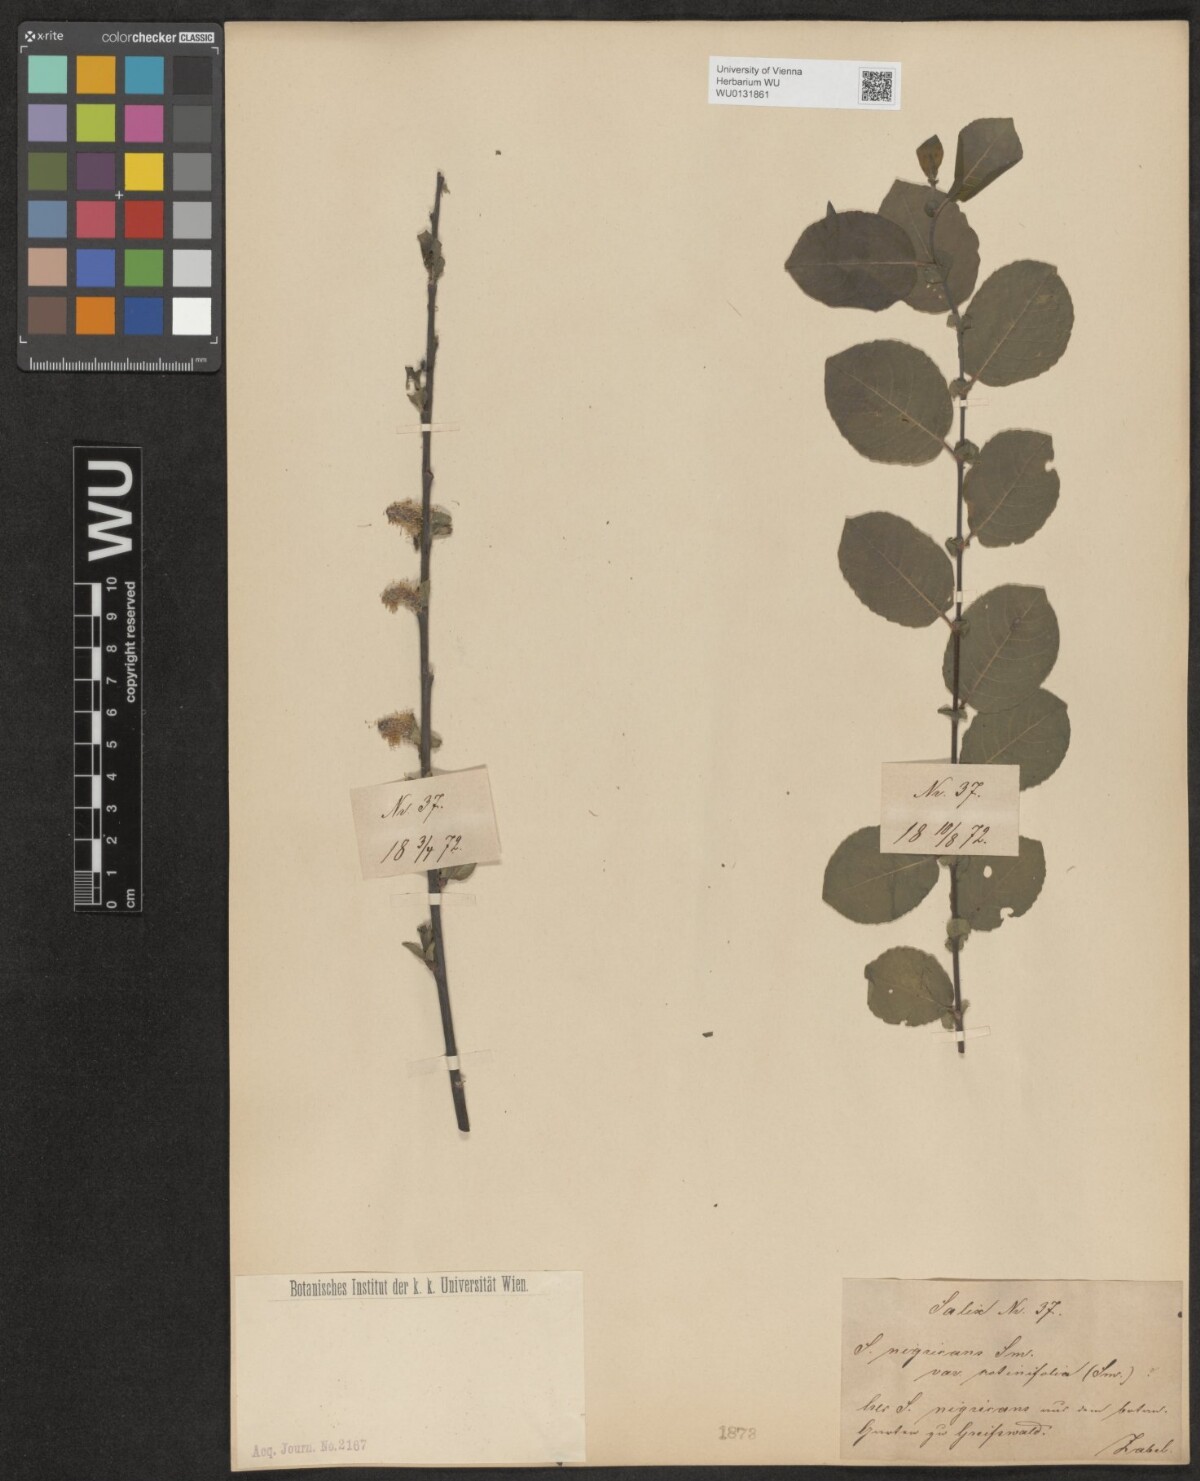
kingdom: Plantae
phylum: Tracheophyta
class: Magnoliopsida
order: Malpighiales
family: Salicaceae
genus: Salix
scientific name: Salix myrsinifolia
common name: Dark-leaved willow
